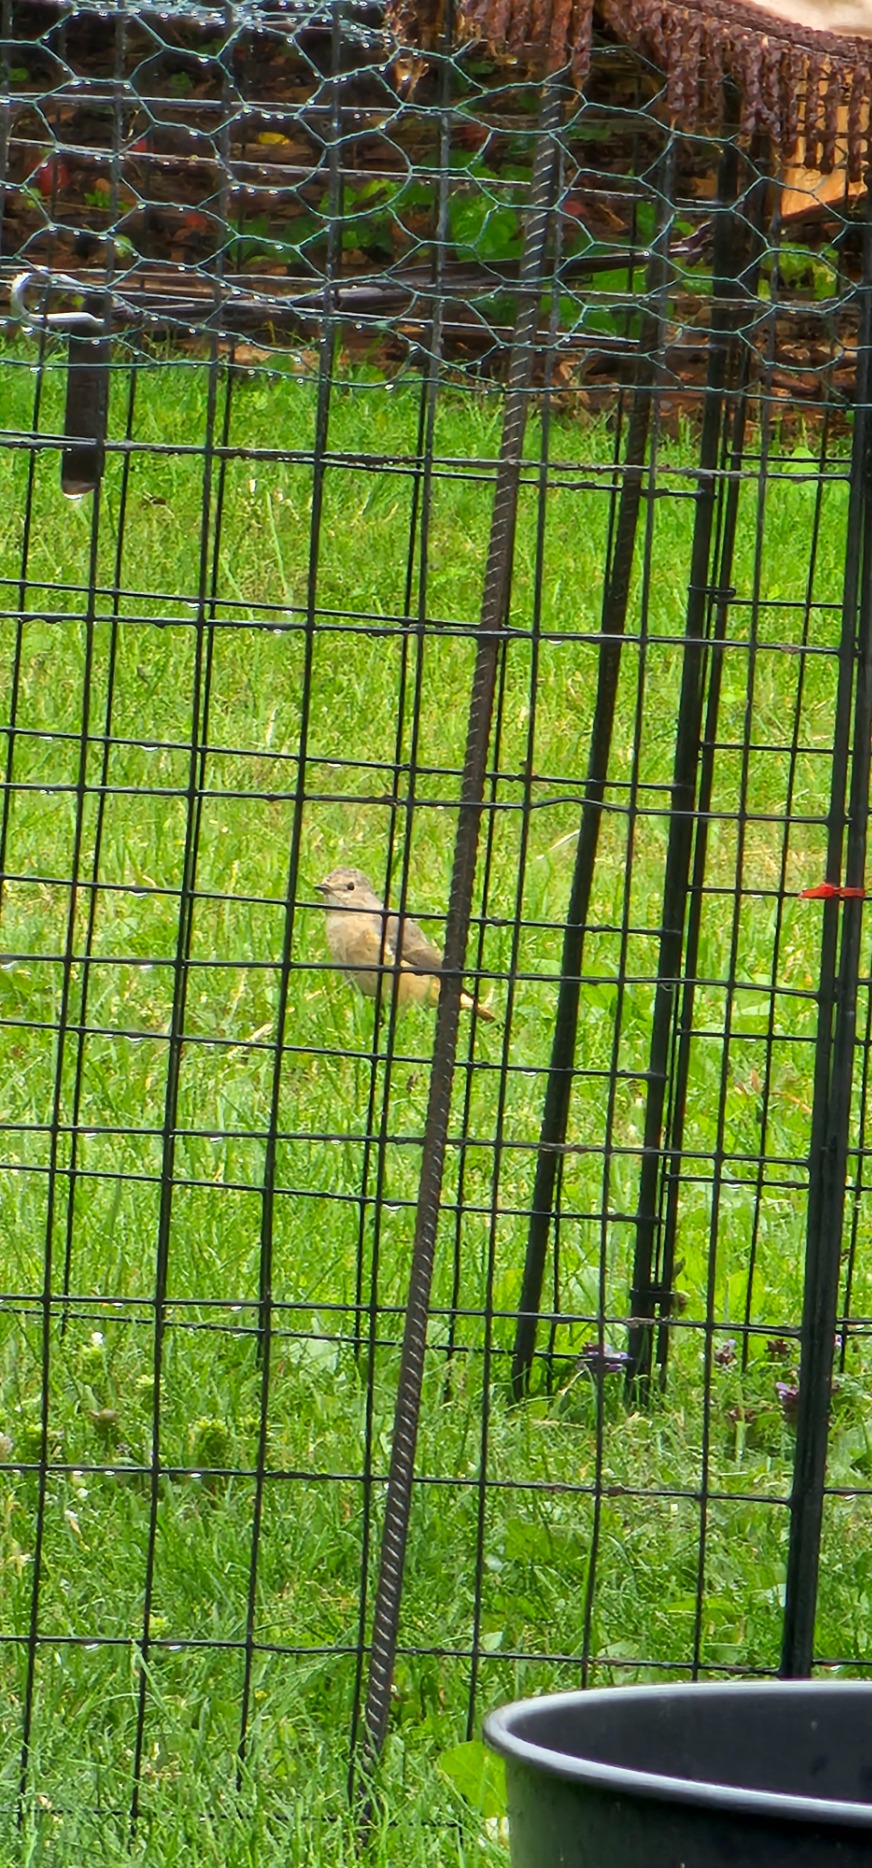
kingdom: Animalia
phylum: Chordata
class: Aves
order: Passeriformes
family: Muscicapidae
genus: Phoenicurus
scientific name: Phoenicurus phoenicurus
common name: Rødstjert
